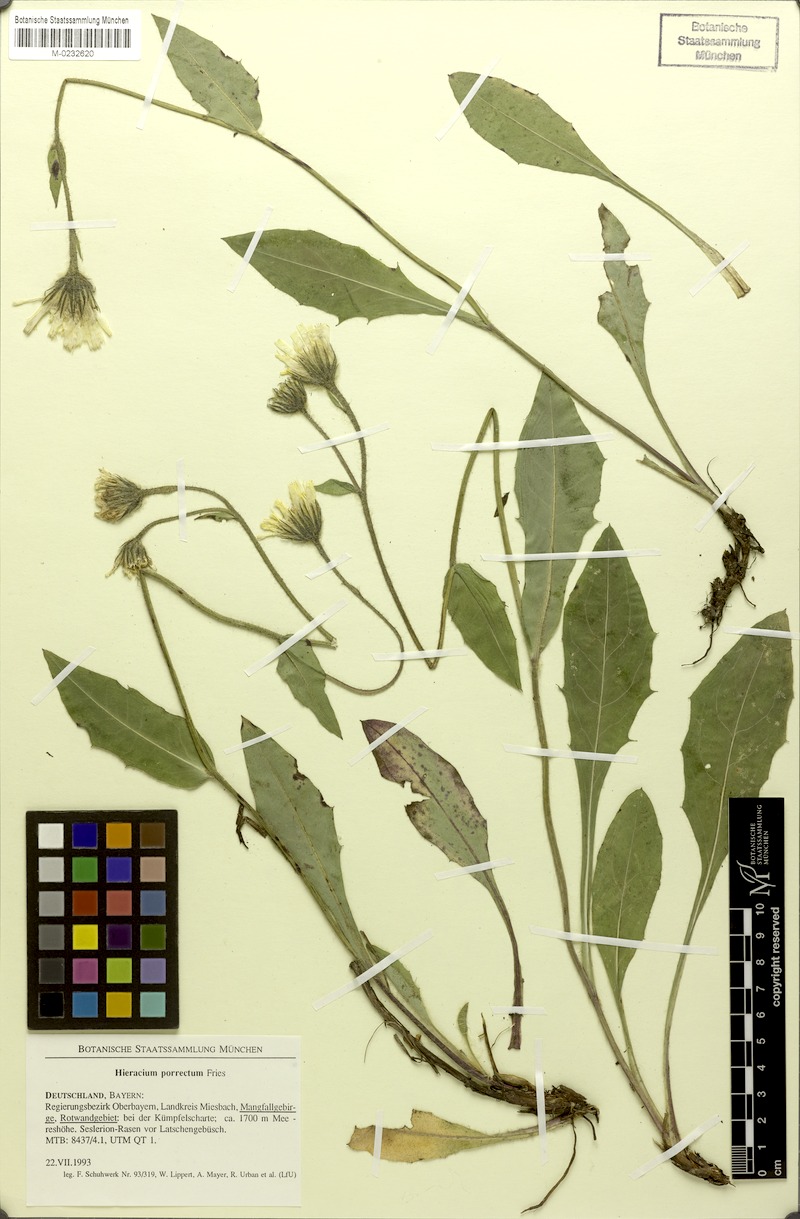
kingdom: Plantae
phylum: Tracheophyta
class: Magnoliopsida
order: Asterales
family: Asteraceae
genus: Hieracium
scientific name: Hieracium porrectum
